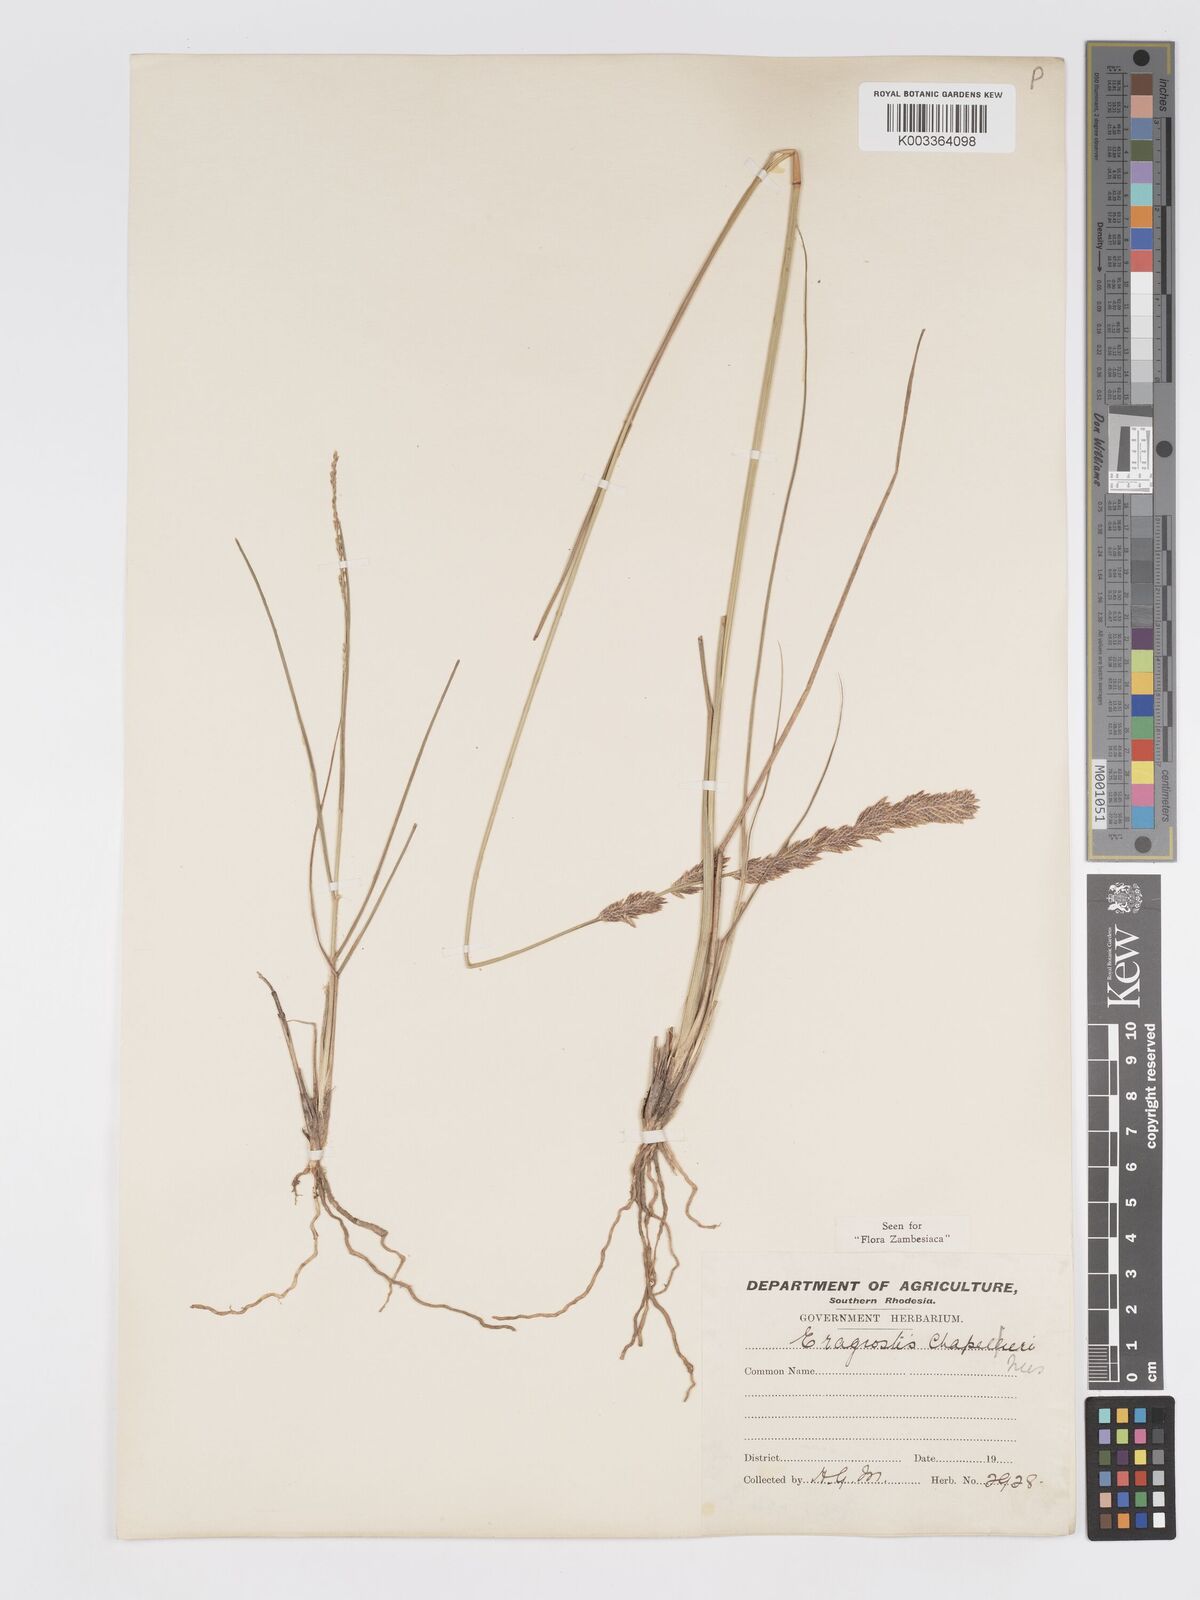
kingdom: Plantae
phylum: Tracheophyta
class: Liliopsida
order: Poales
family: Poaceae
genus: Eragrostis
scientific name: Eragrostis chapelieri
